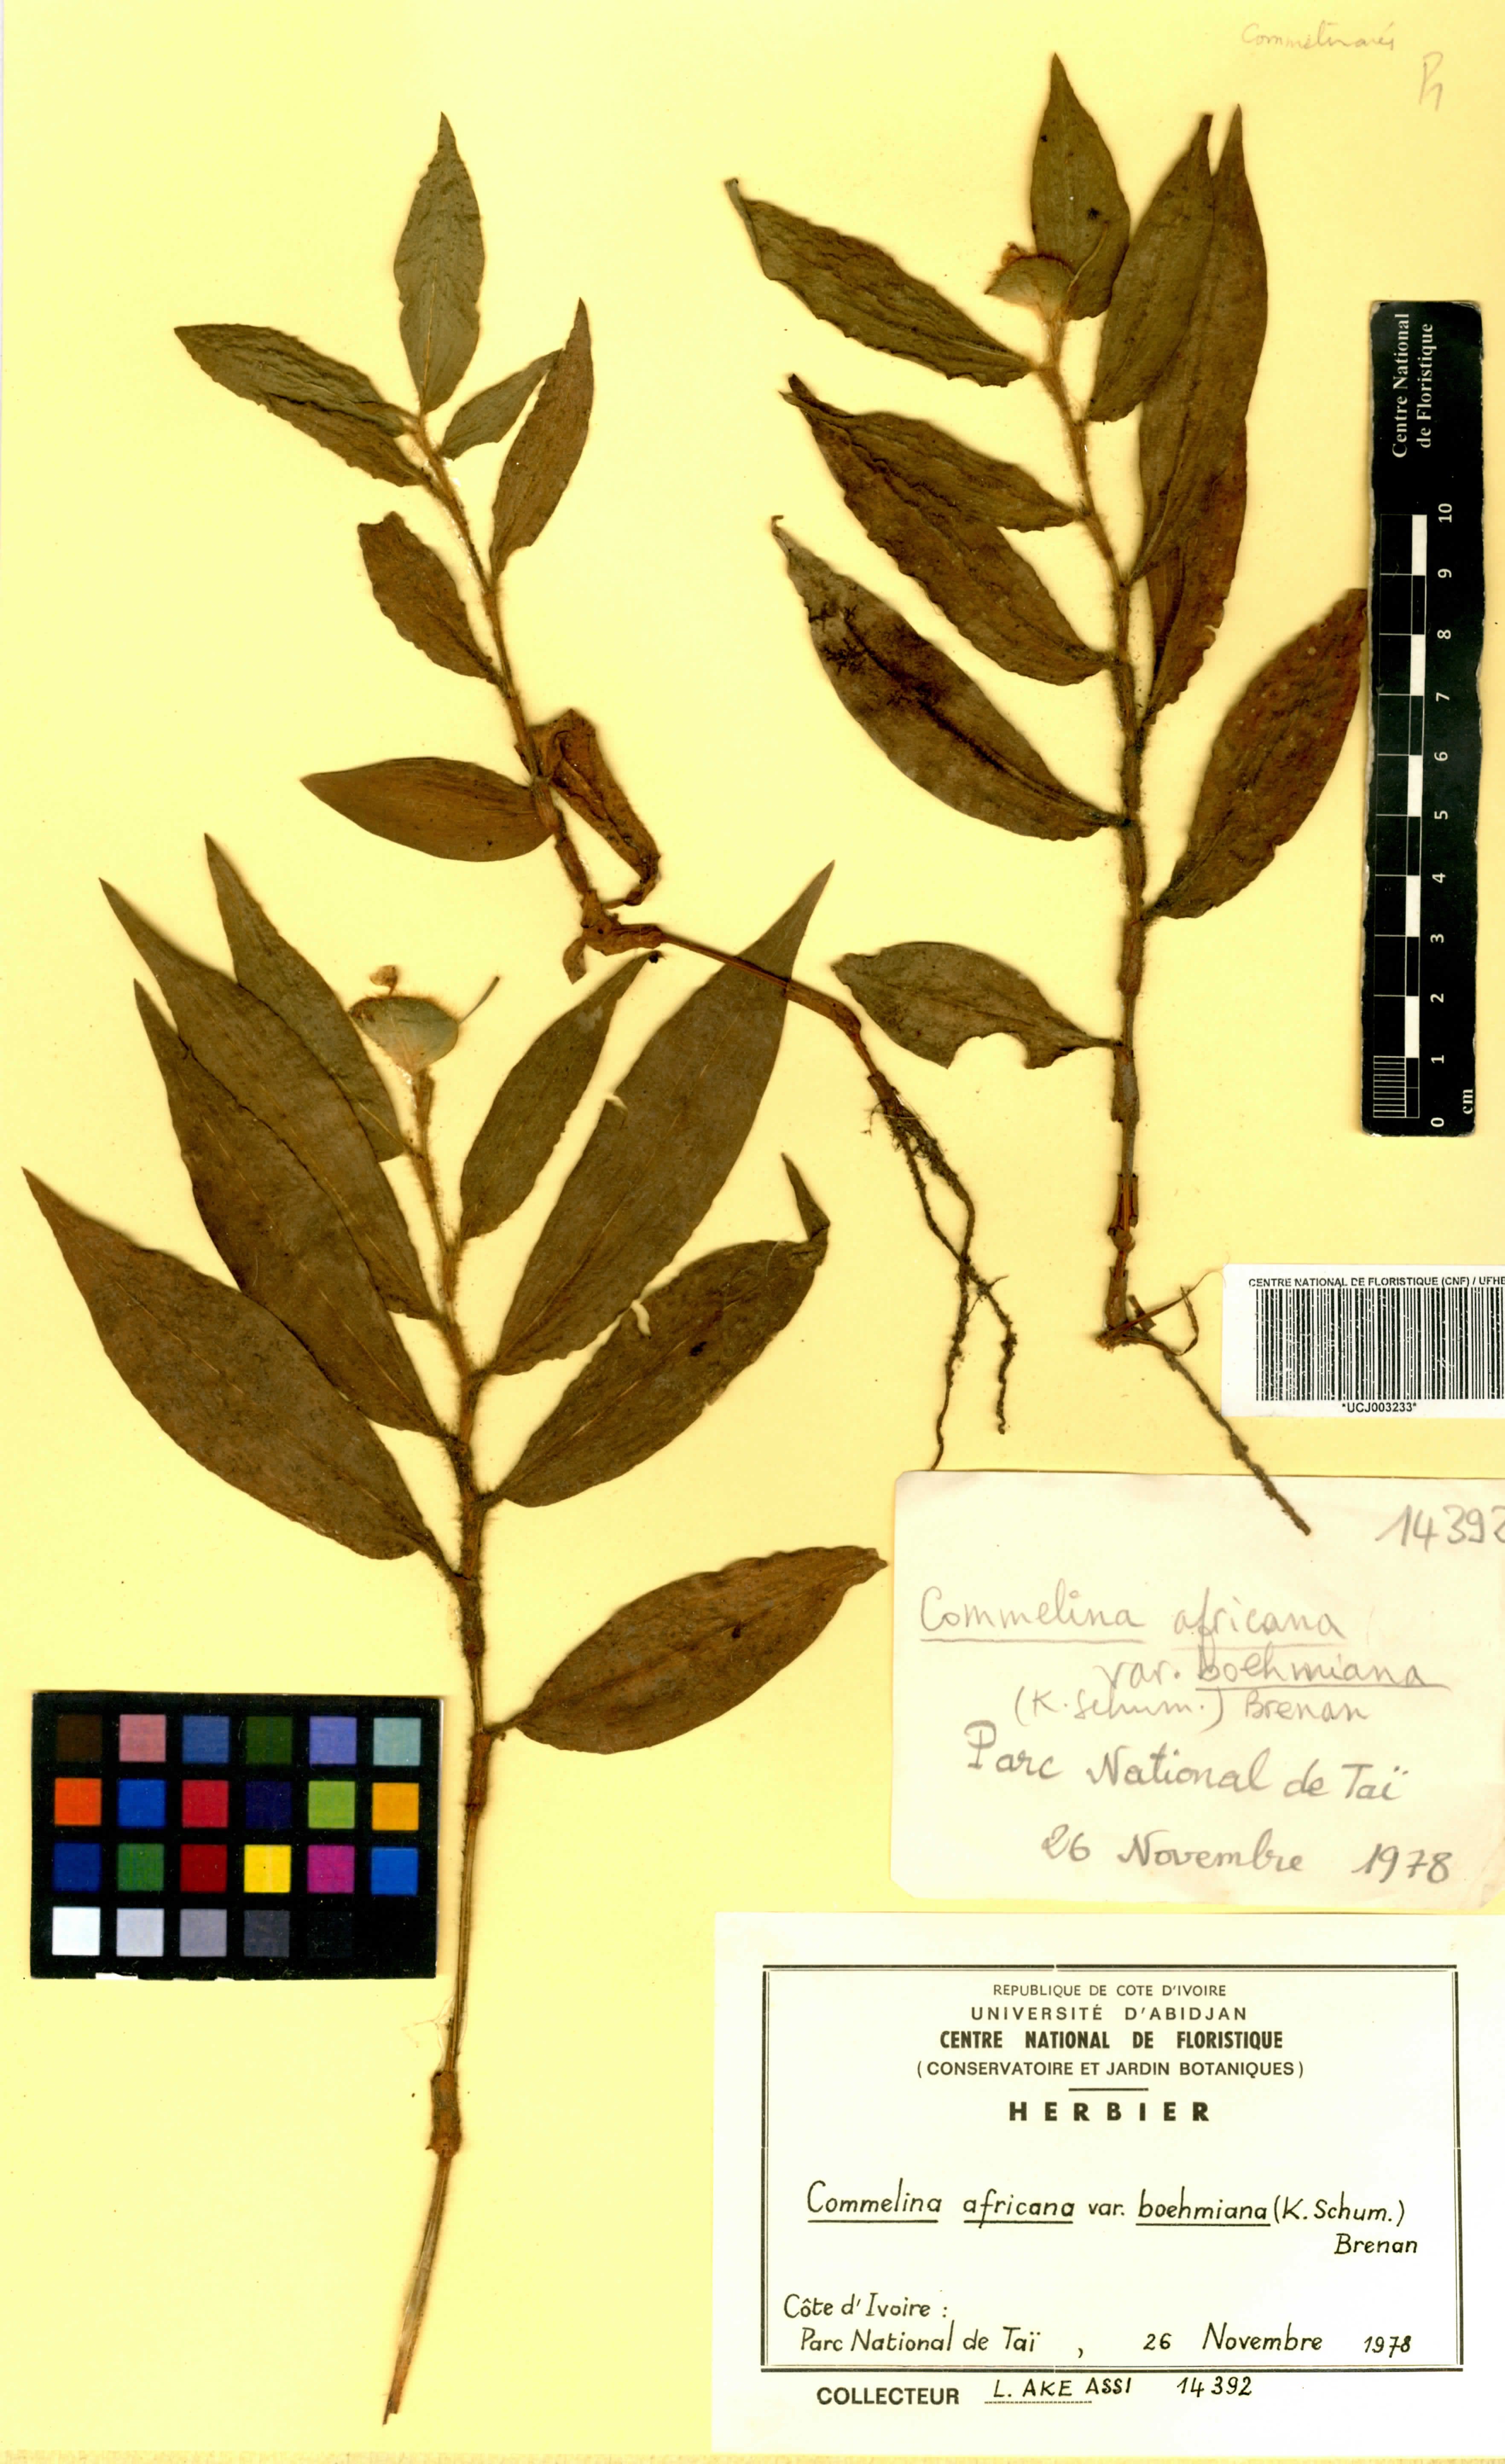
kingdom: Plantae
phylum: Tracheophyta
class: Liliopsida
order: Commelinales
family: Commelinaceae
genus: Commelina
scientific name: Commelina africana
